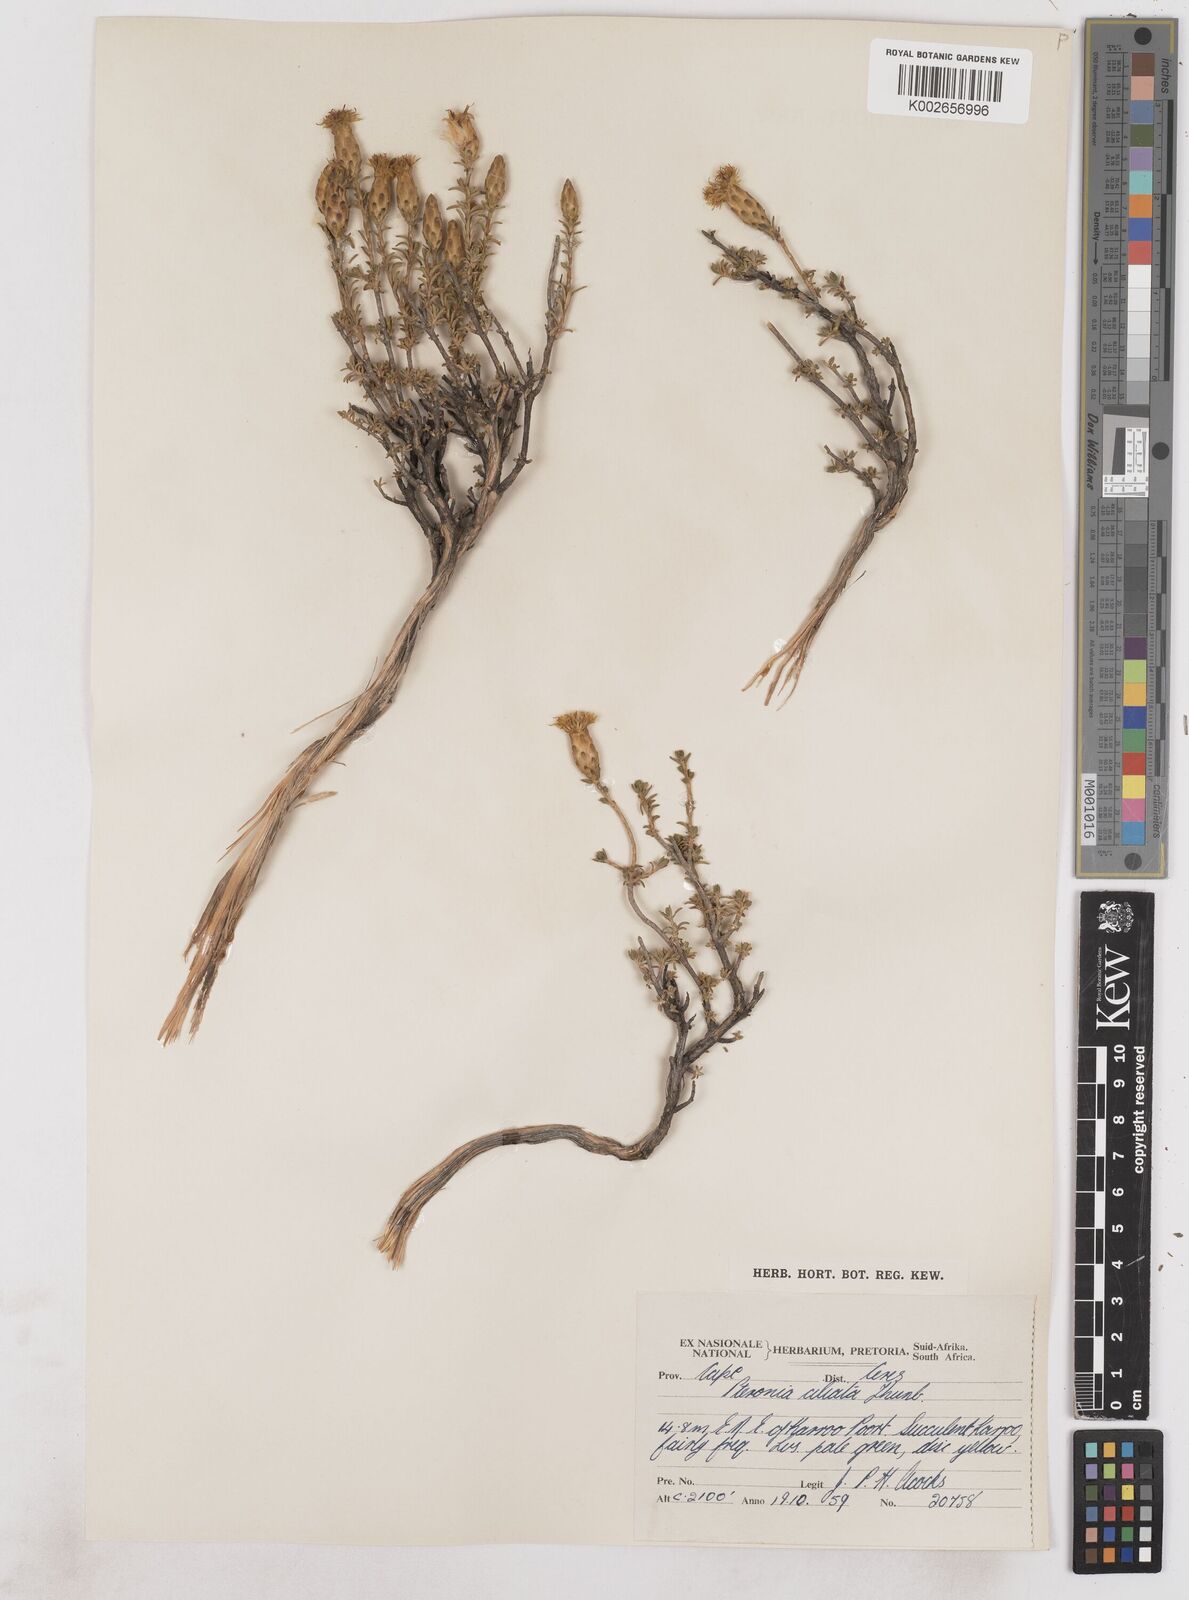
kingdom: Plantae
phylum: Tracheophyta
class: Magnoliopsida
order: Asterales
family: Asteraceae
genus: Pteronia
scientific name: Pteronia ciliata
